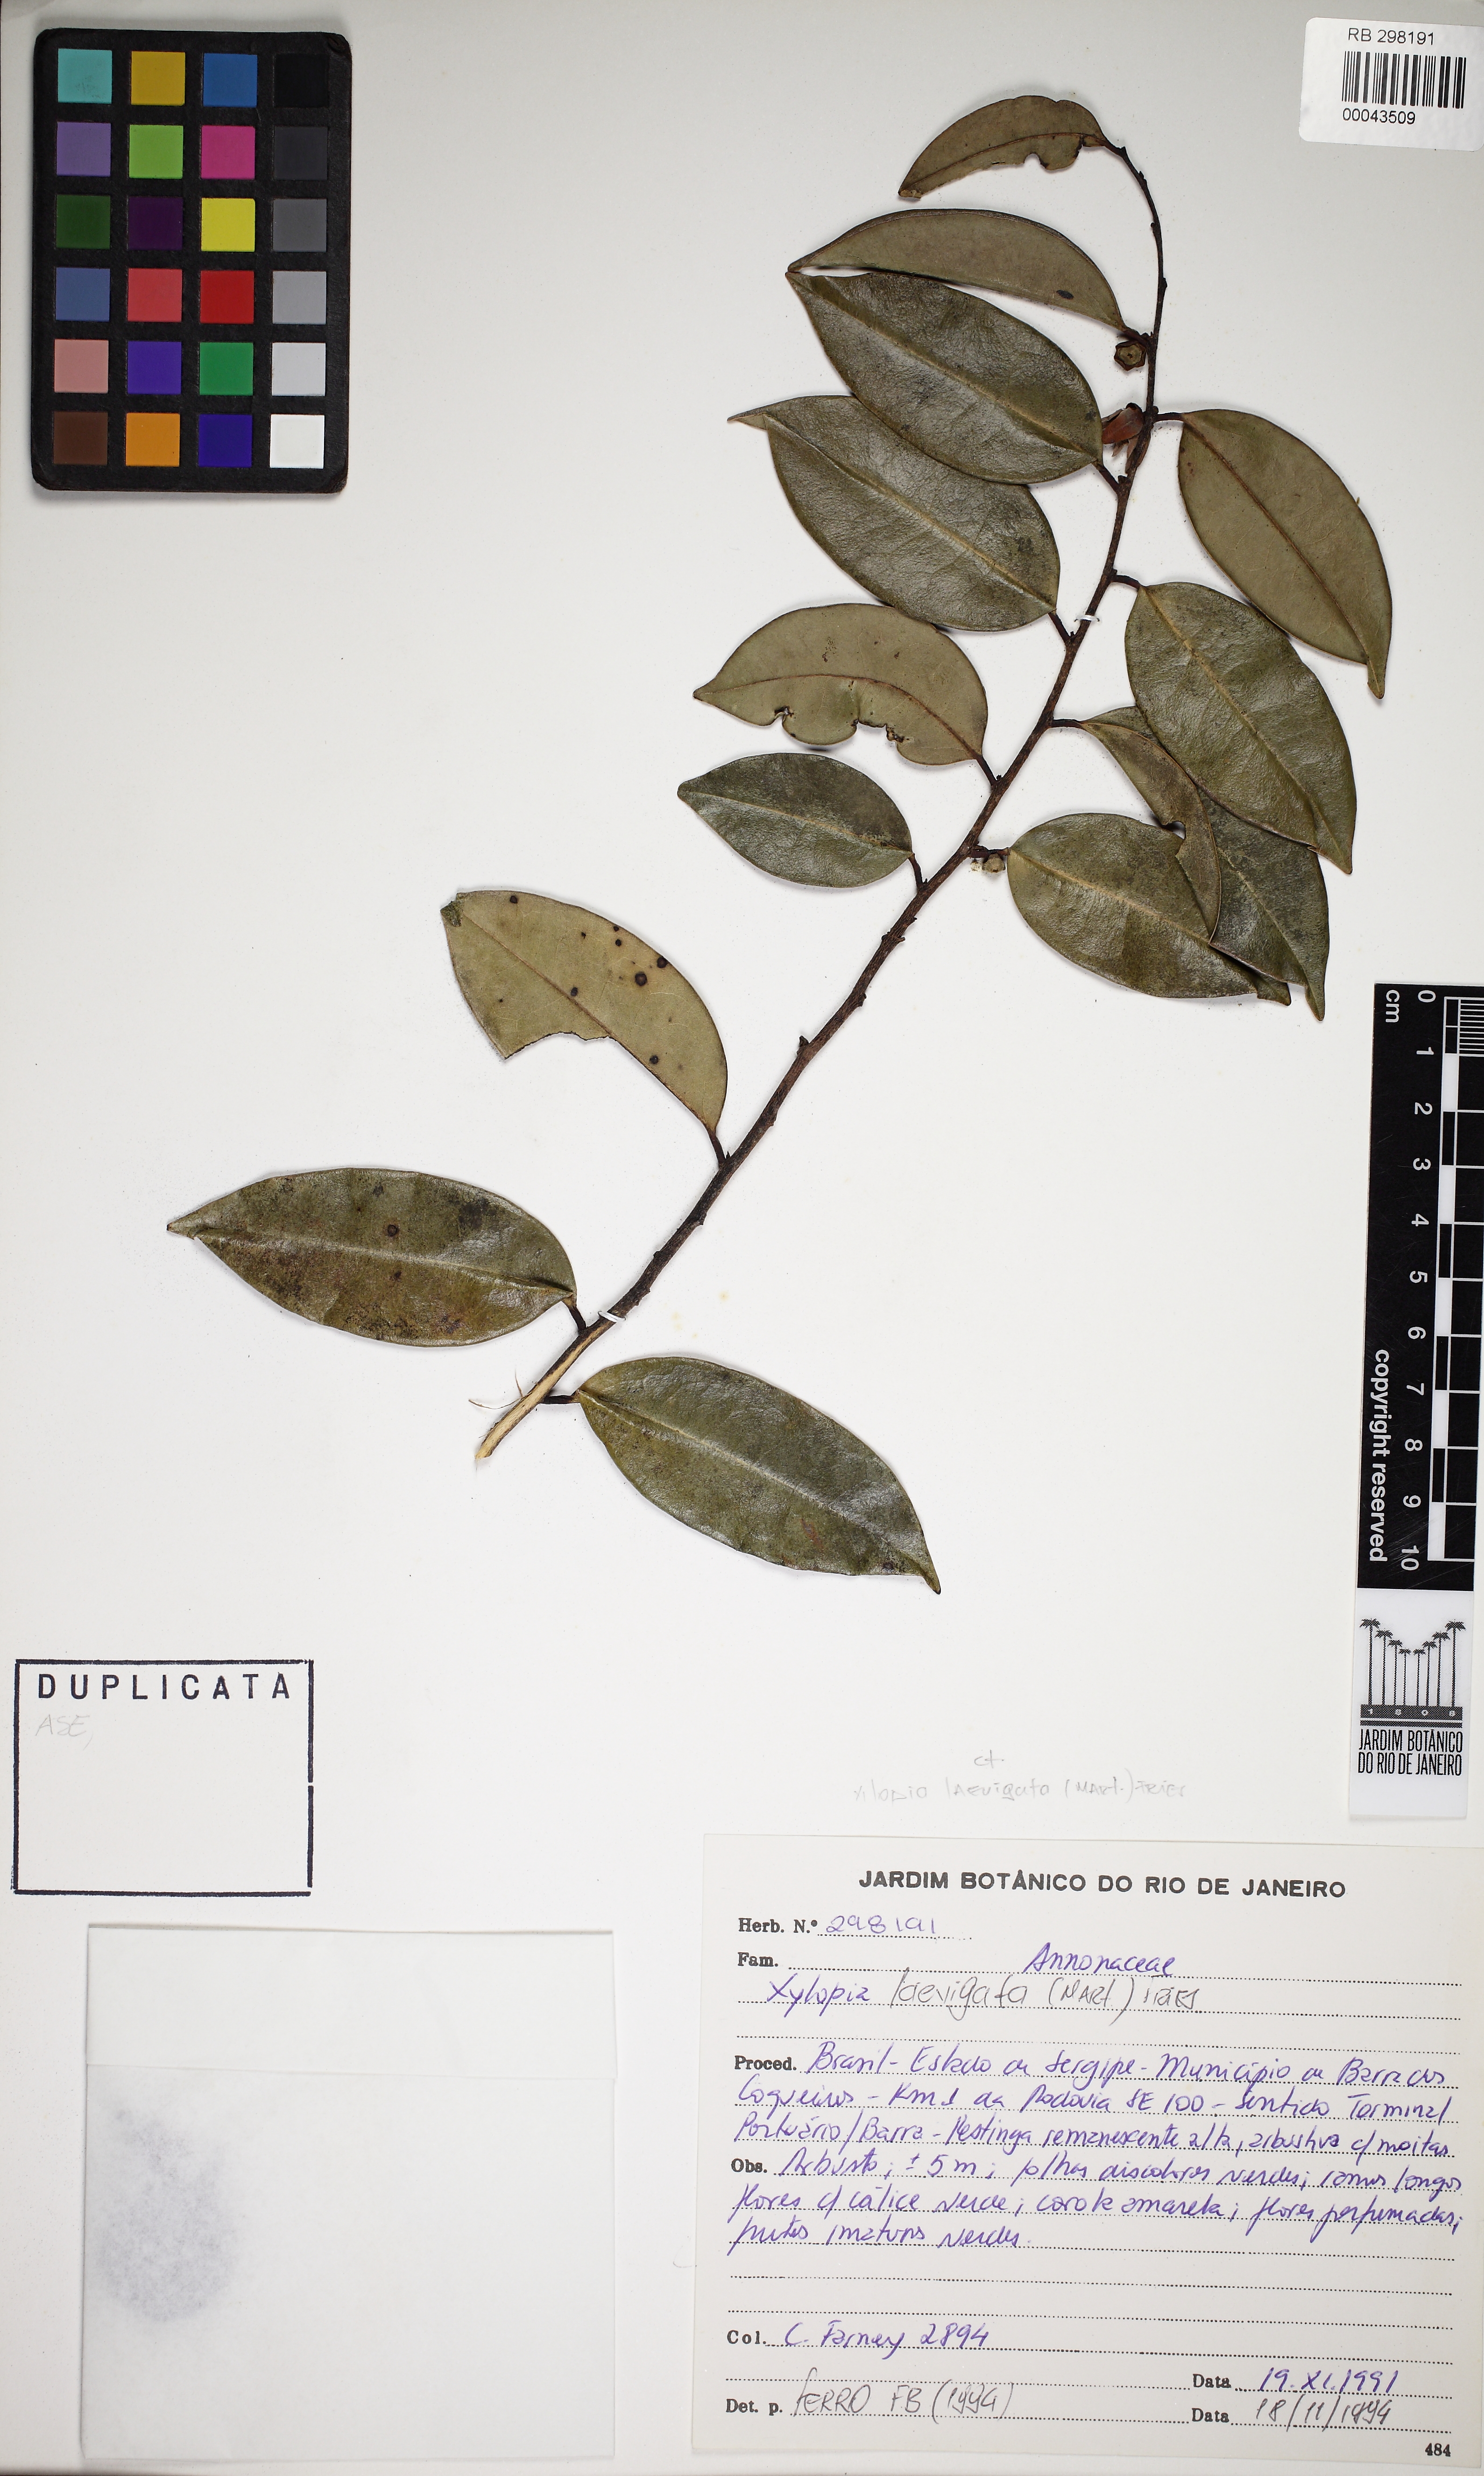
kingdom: Plantae
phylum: Tracheophyta
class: Magnoliopsida
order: Magnoliales
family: Annonaceae
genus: Xylopia
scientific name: Xylopia laevigata
